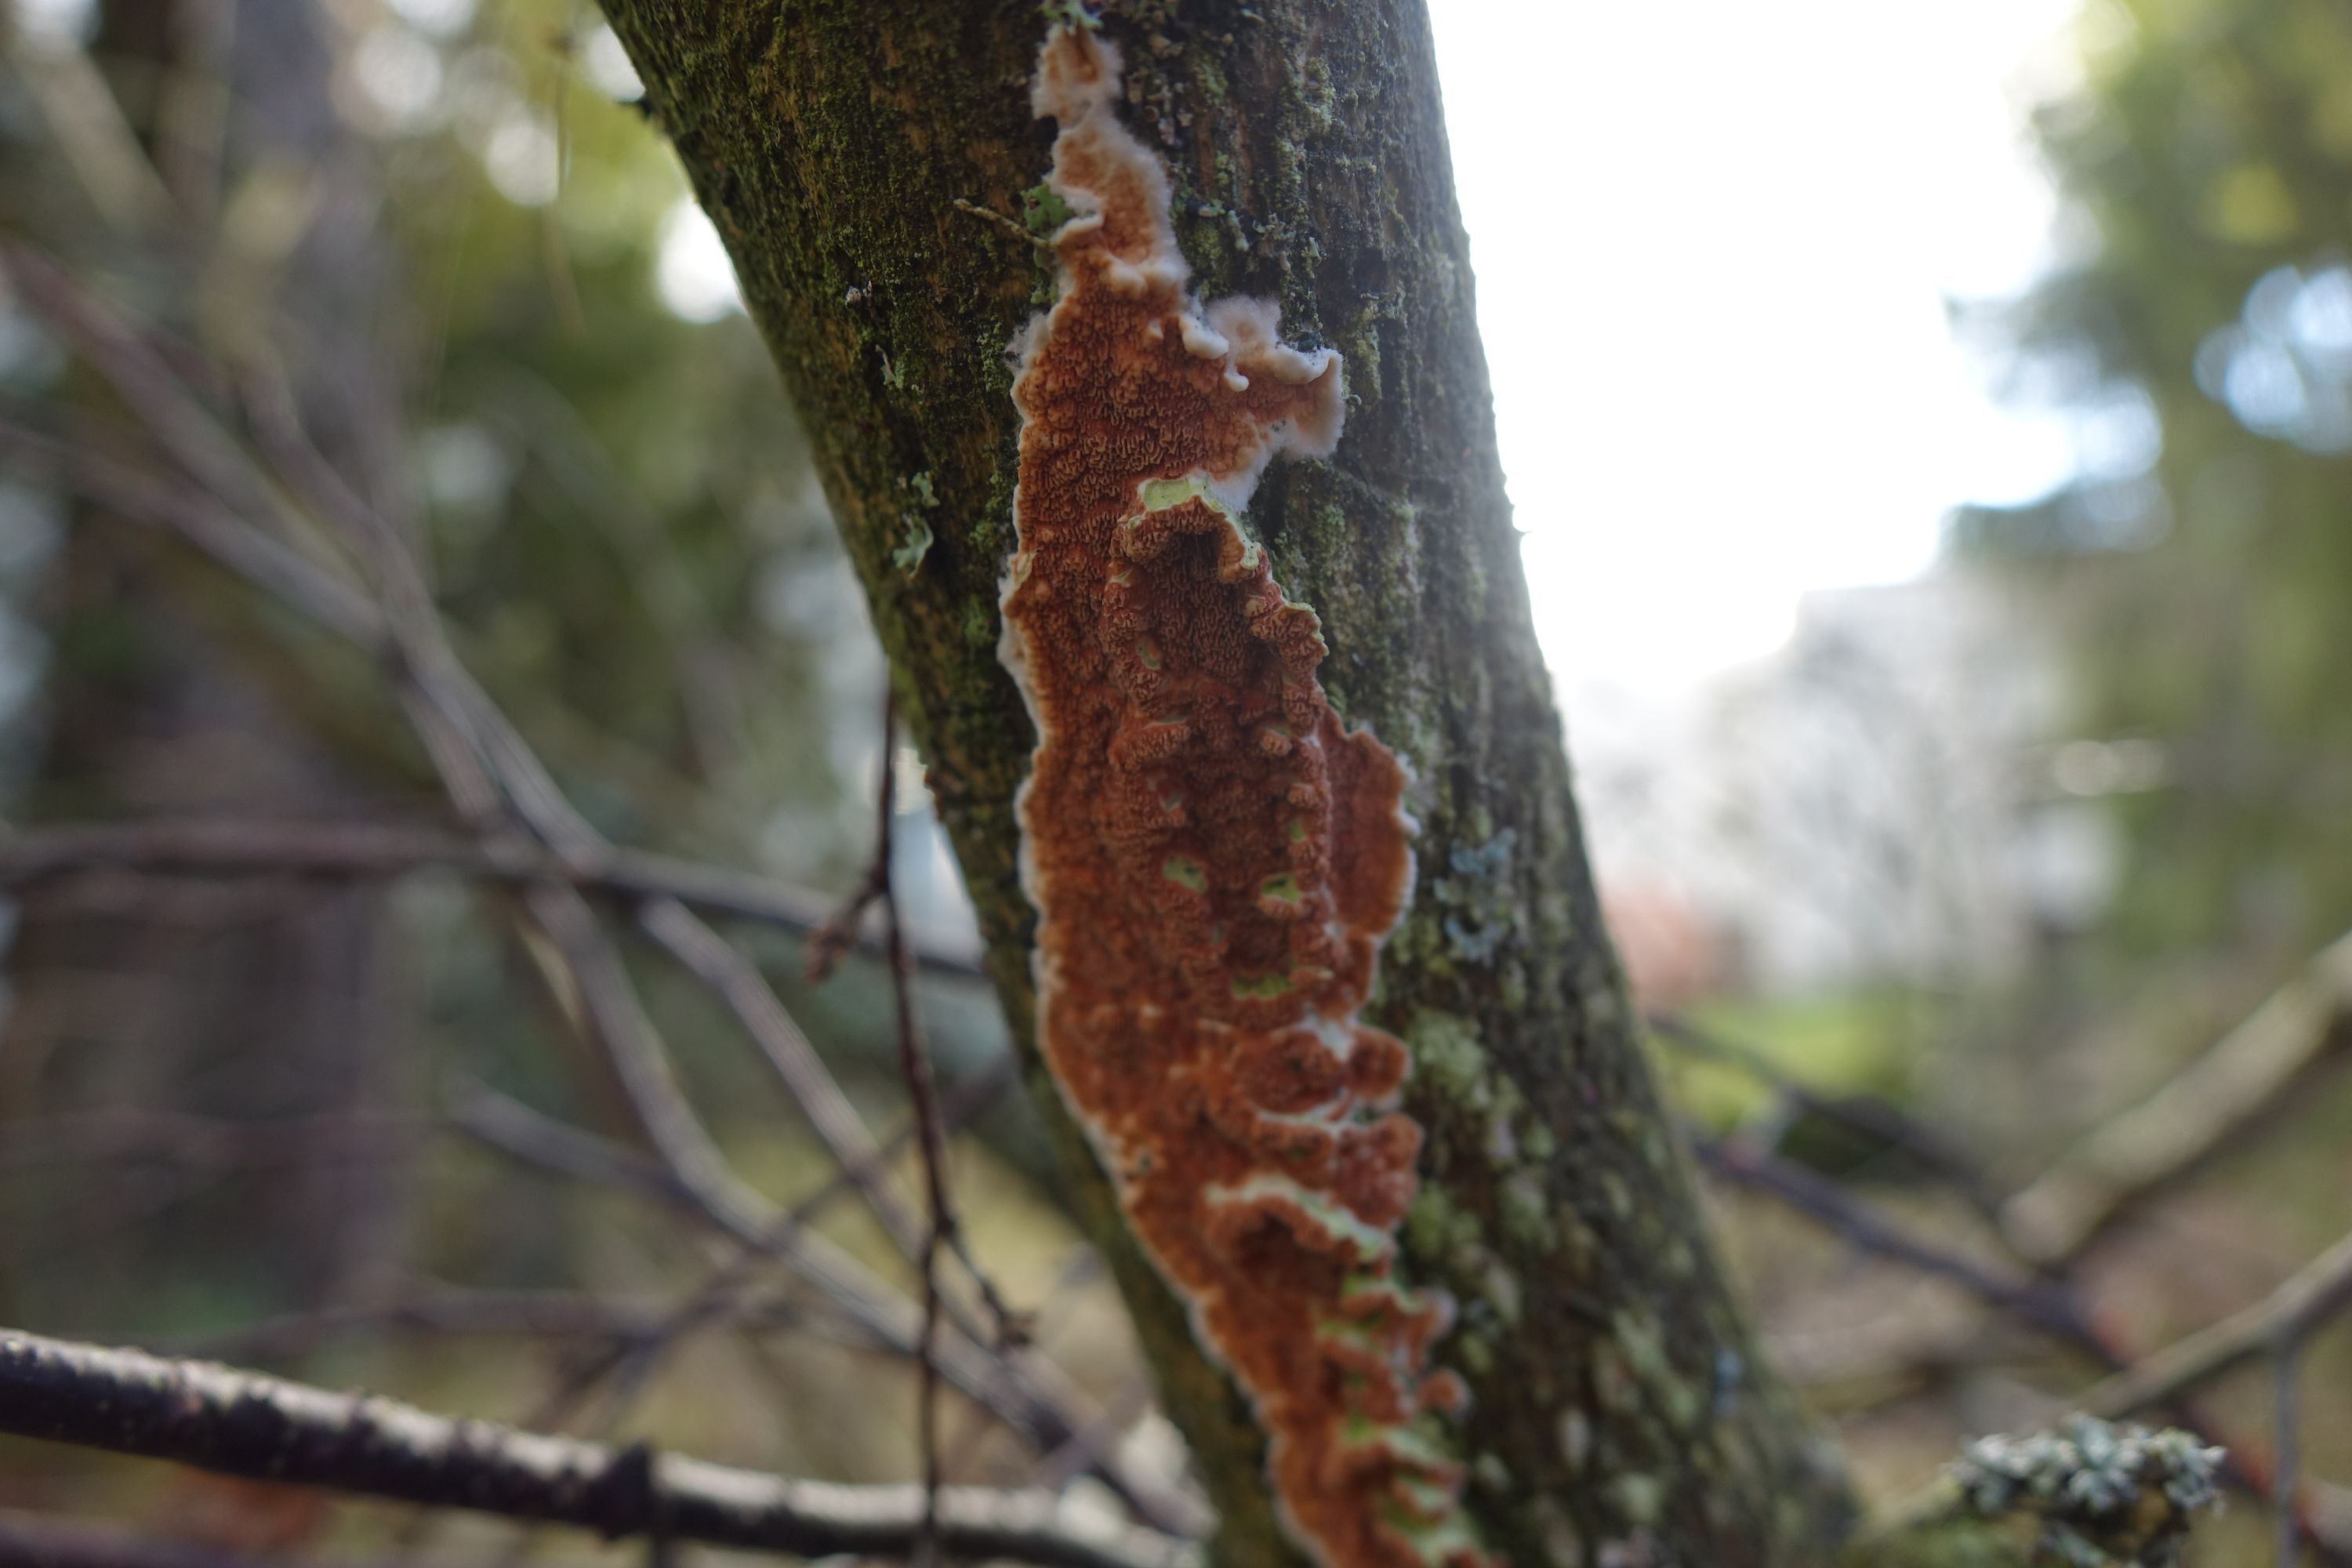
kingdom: Fungi
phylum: Basidiomycota
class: Agaricomycetes
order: Polyporales
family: Irpicaceae
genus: Meruliopsis
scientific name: Meruliopsis taxicola
